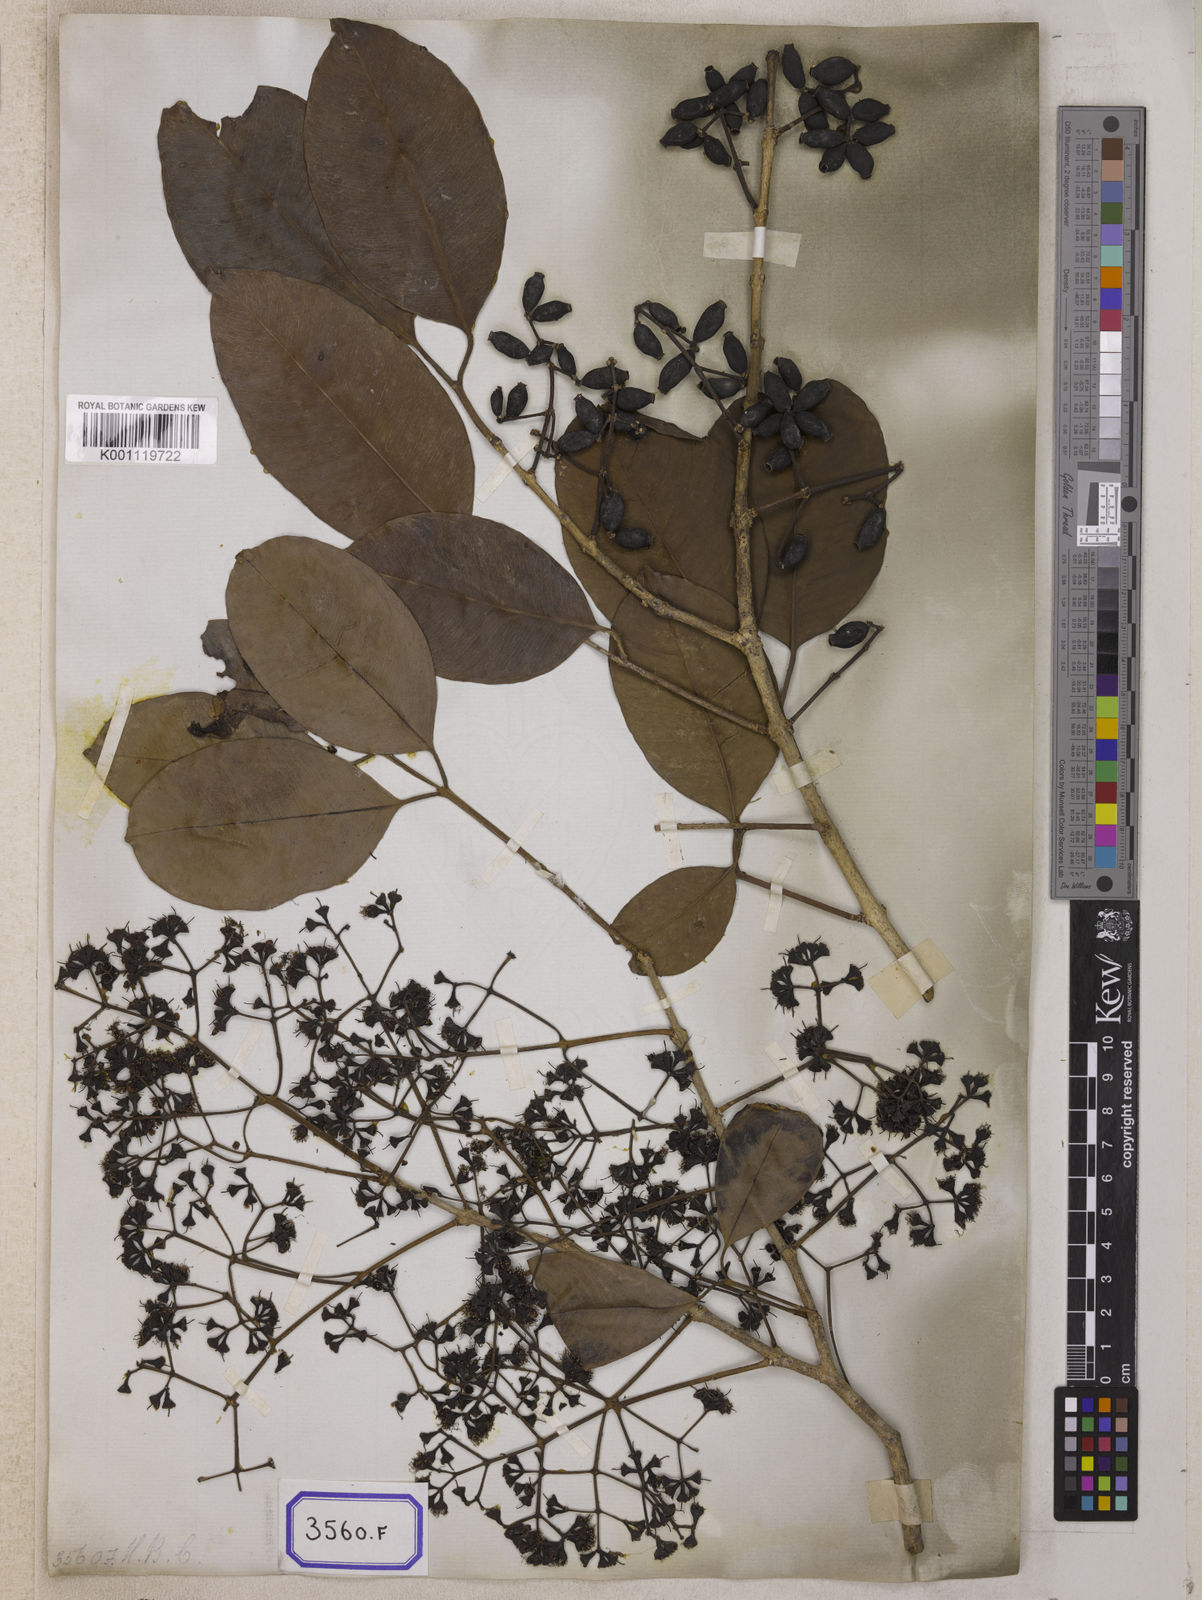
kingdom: Plantae
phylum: Tracheophyta
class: Magnoliopsida
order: Myrtales
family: Myrtaceae
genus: Syzygium
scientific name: Syzygium cumini
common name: Java plum
